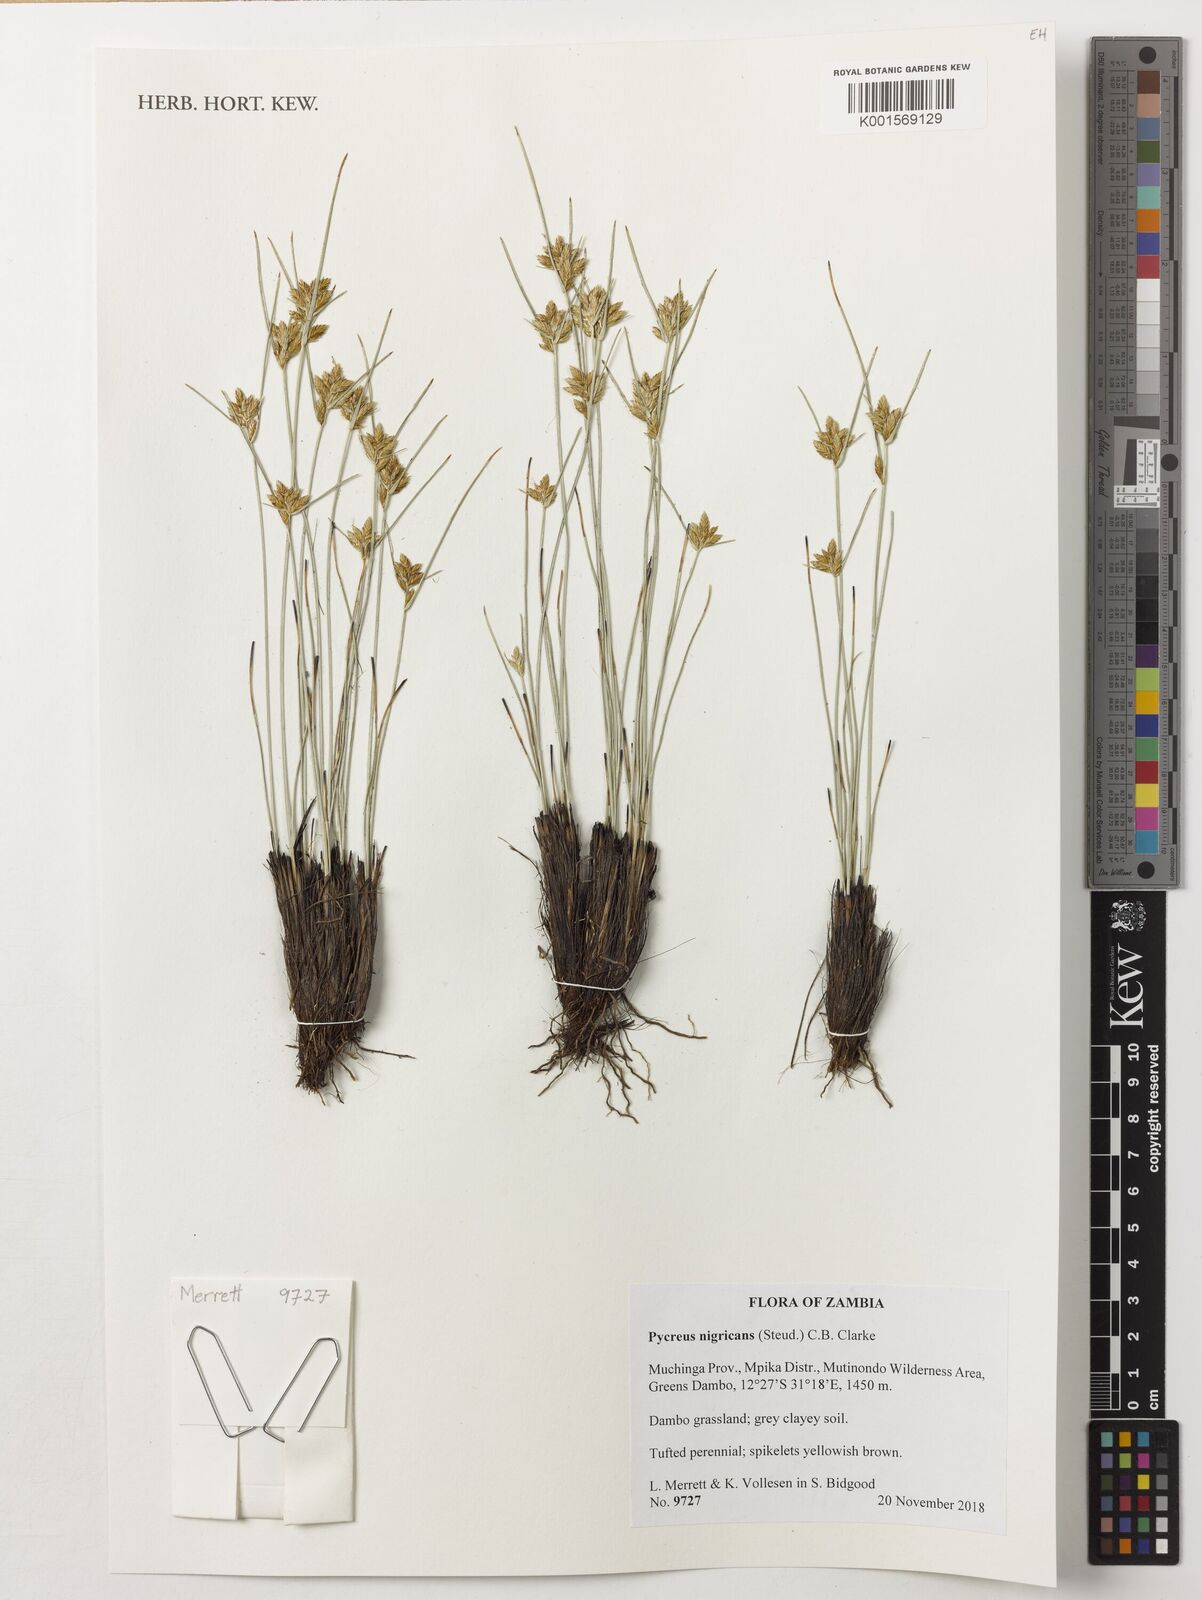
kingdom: Plantae
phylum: Tracheophyta
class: Liliopsida
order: Poales
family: Cyperaceae
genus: Cyperus
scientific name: Cyperus nigricans
